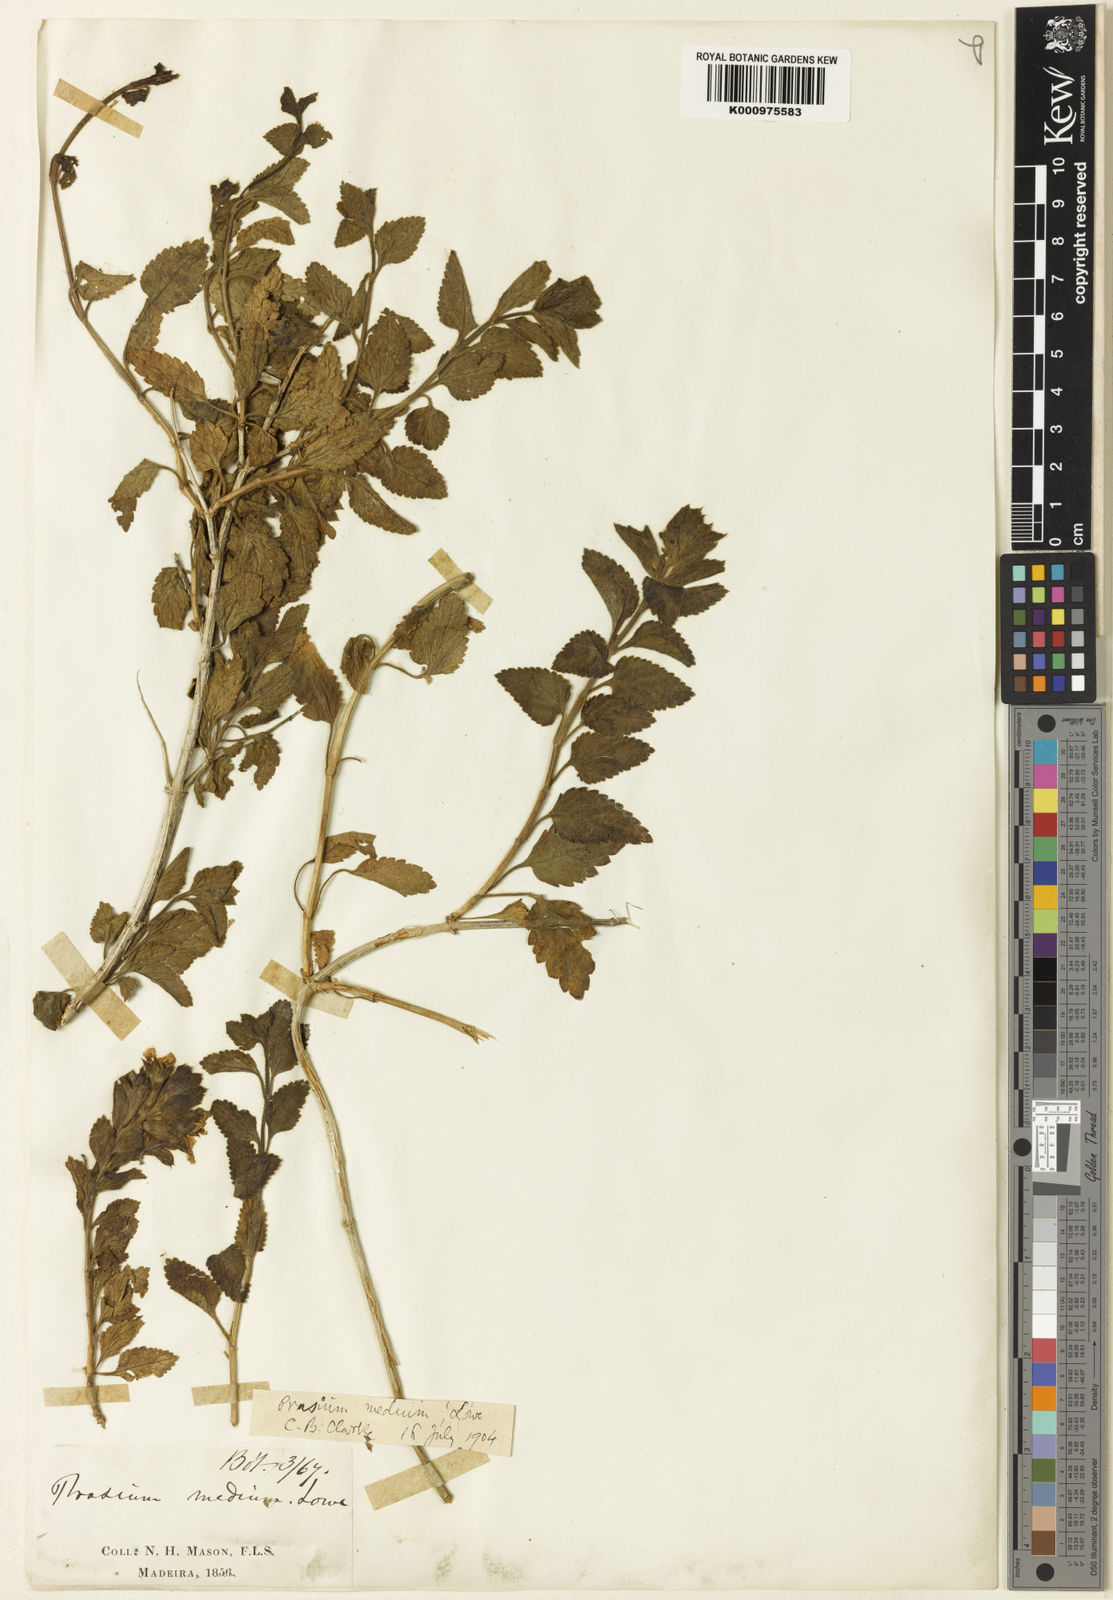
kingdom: Plantae
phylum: Tracheophyta
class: Magnoliopsida
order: Lamiales
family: Lamiaceae
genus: Prasium
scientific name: Prasium majus
